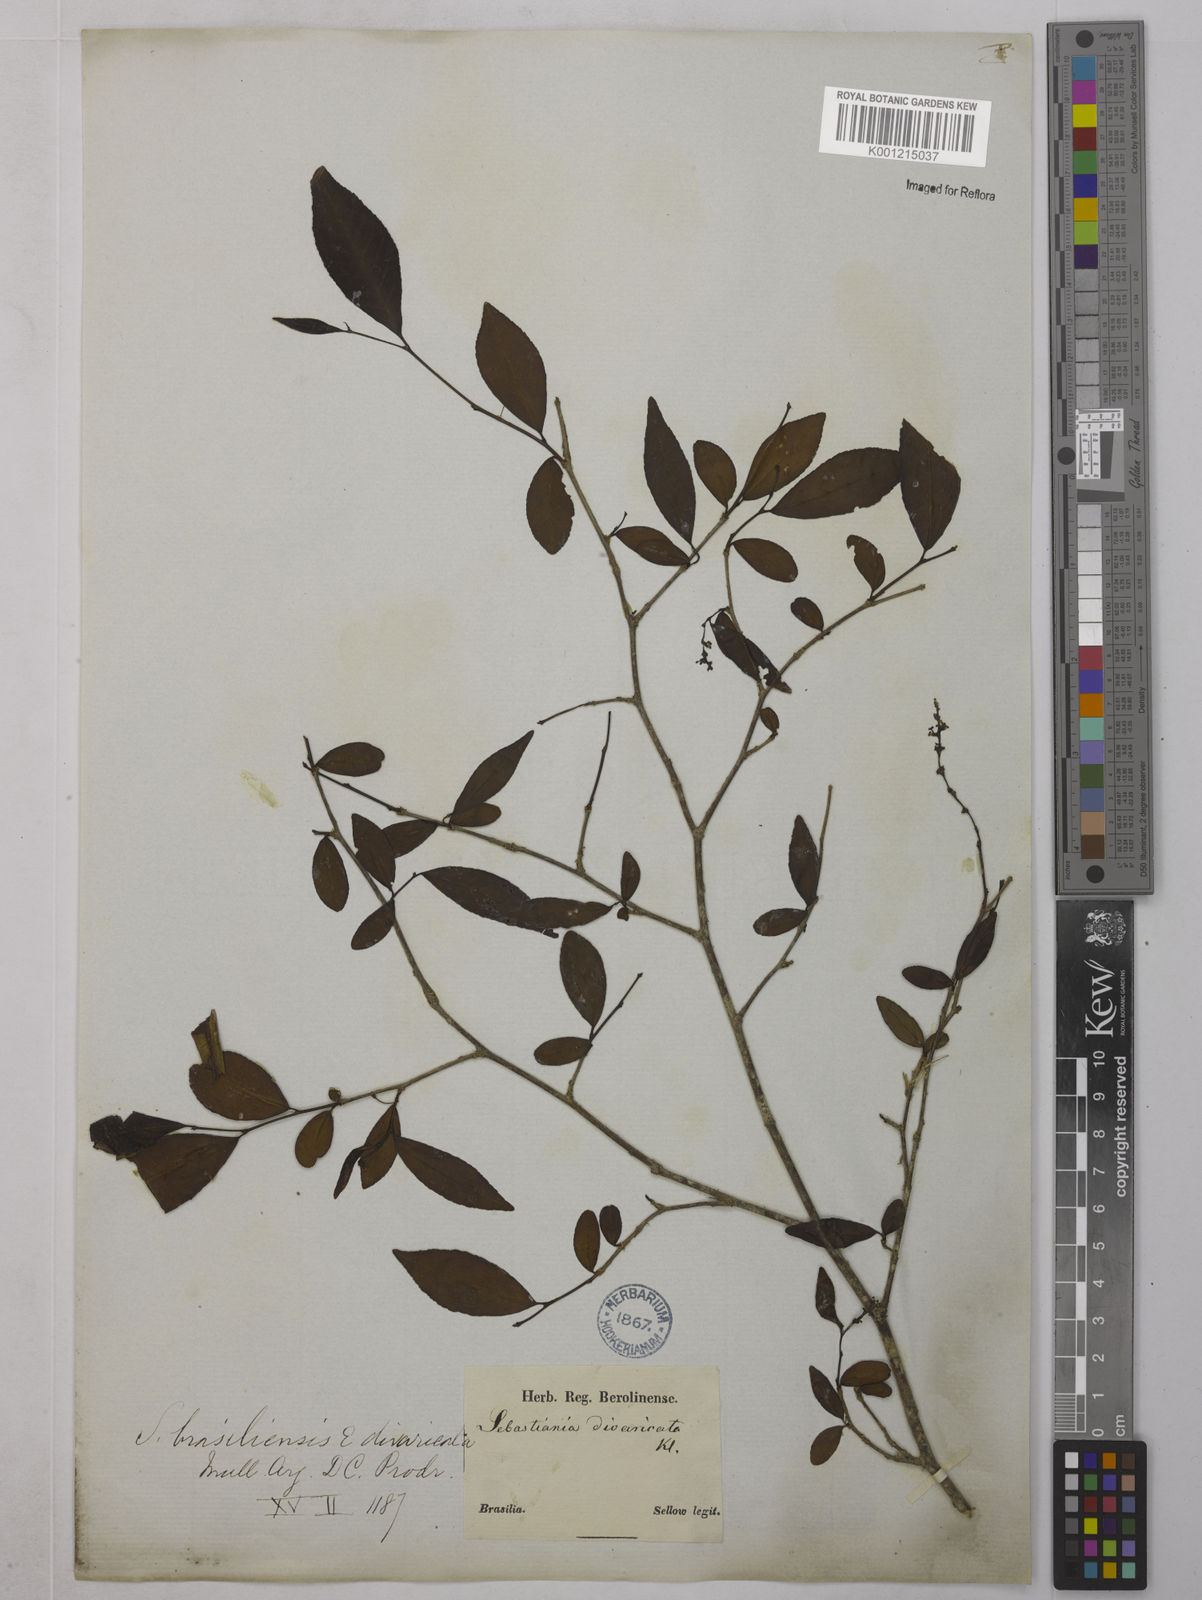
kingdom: Plantae
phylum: Tracheophyta
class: Magnoliopsida
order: Malpighiales
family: Euphorbiaceae
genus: Sebastiania
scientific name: Sebastiania brasiliensis
